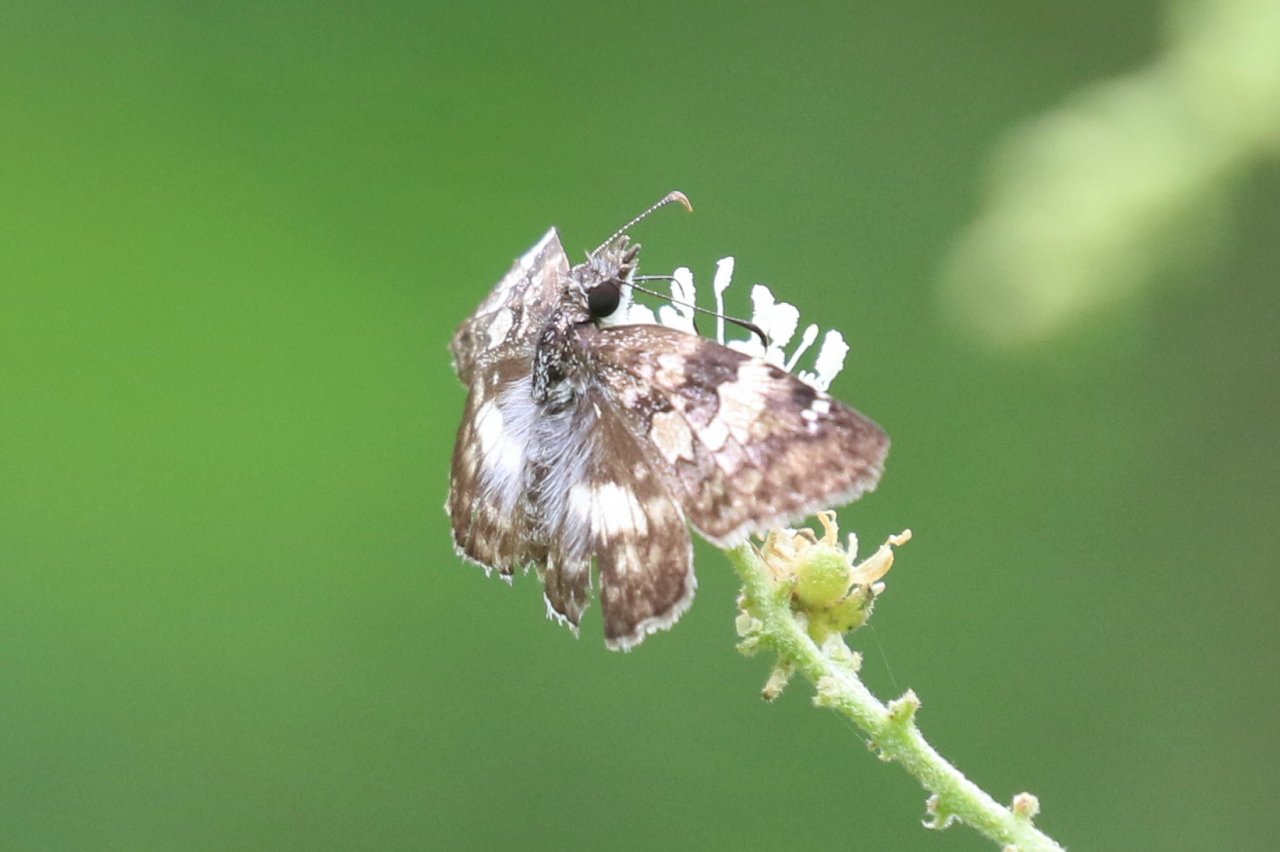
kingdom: Animalia
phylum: Arthropoda
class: Insecta
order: Lepidoptera
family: Hesperiidae
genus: Chiomara
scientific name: Chiomara asychis
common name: White-patched Skipper
